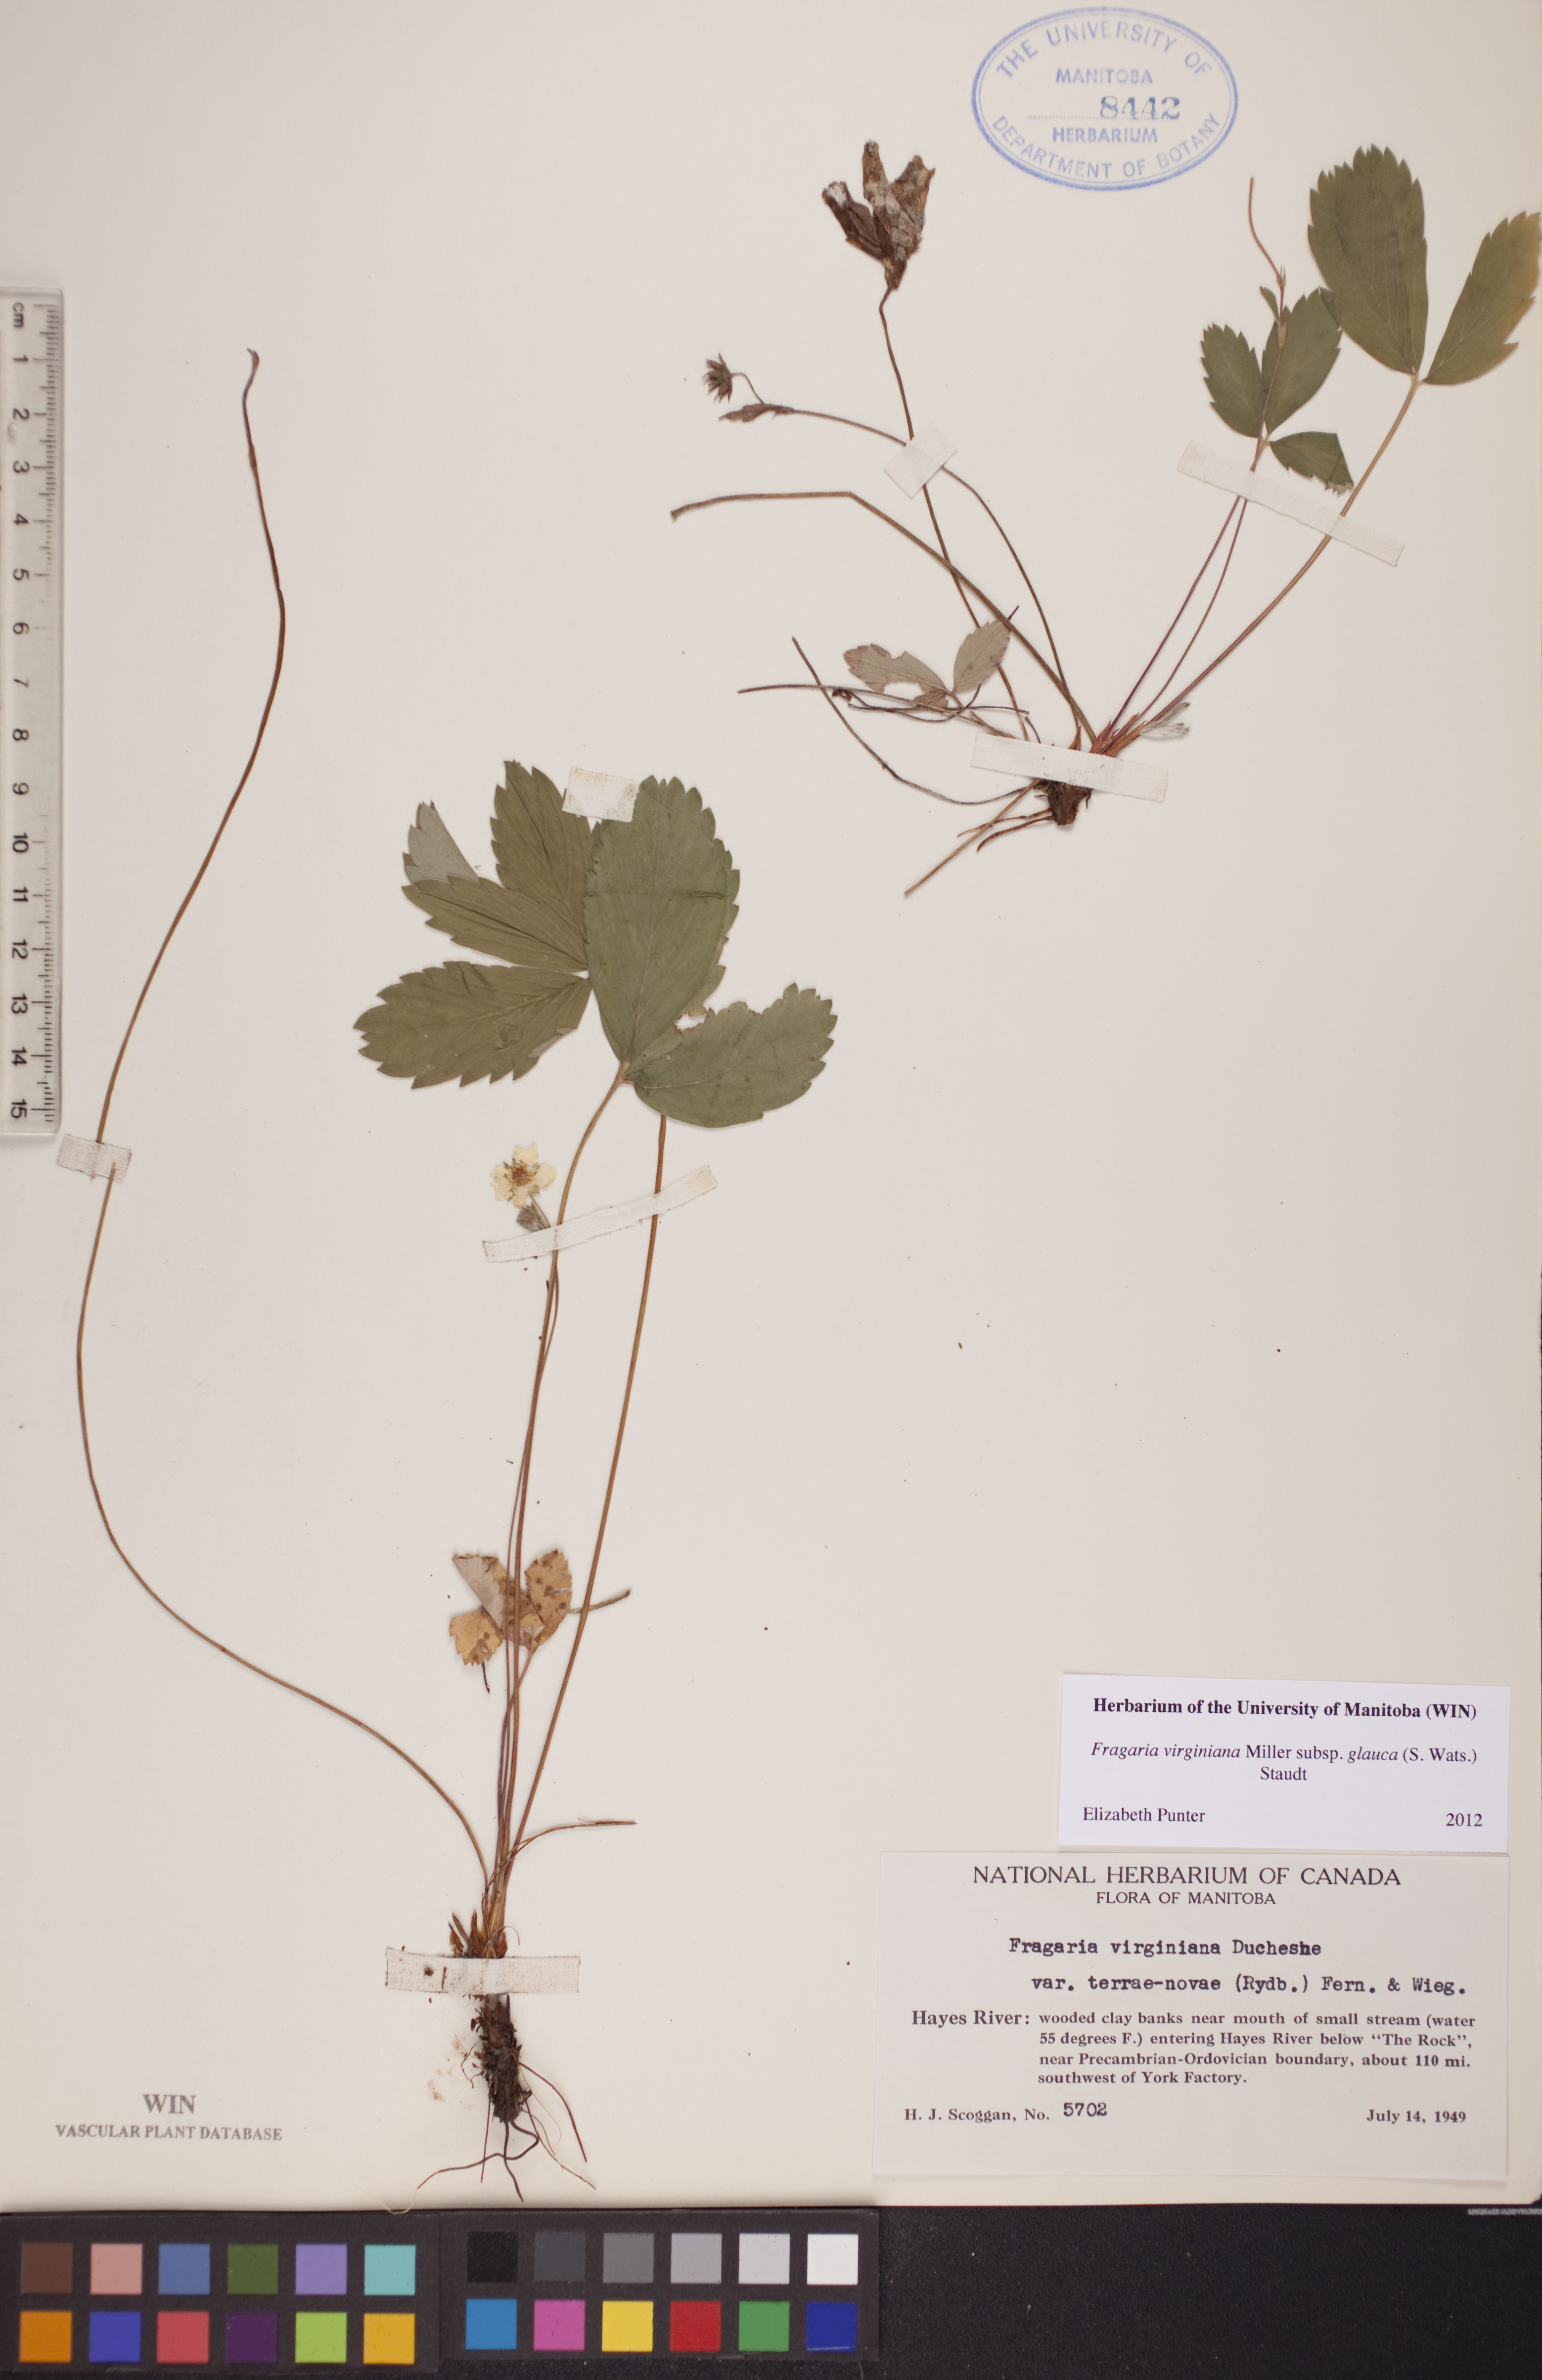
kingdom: Plantae
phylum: Tracheophyta
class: Magnoliopsida
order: Rosales
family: Rosaceae
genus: Fragaria
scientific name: Fragaria virginiana
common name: Thickleaved wild strawberry
